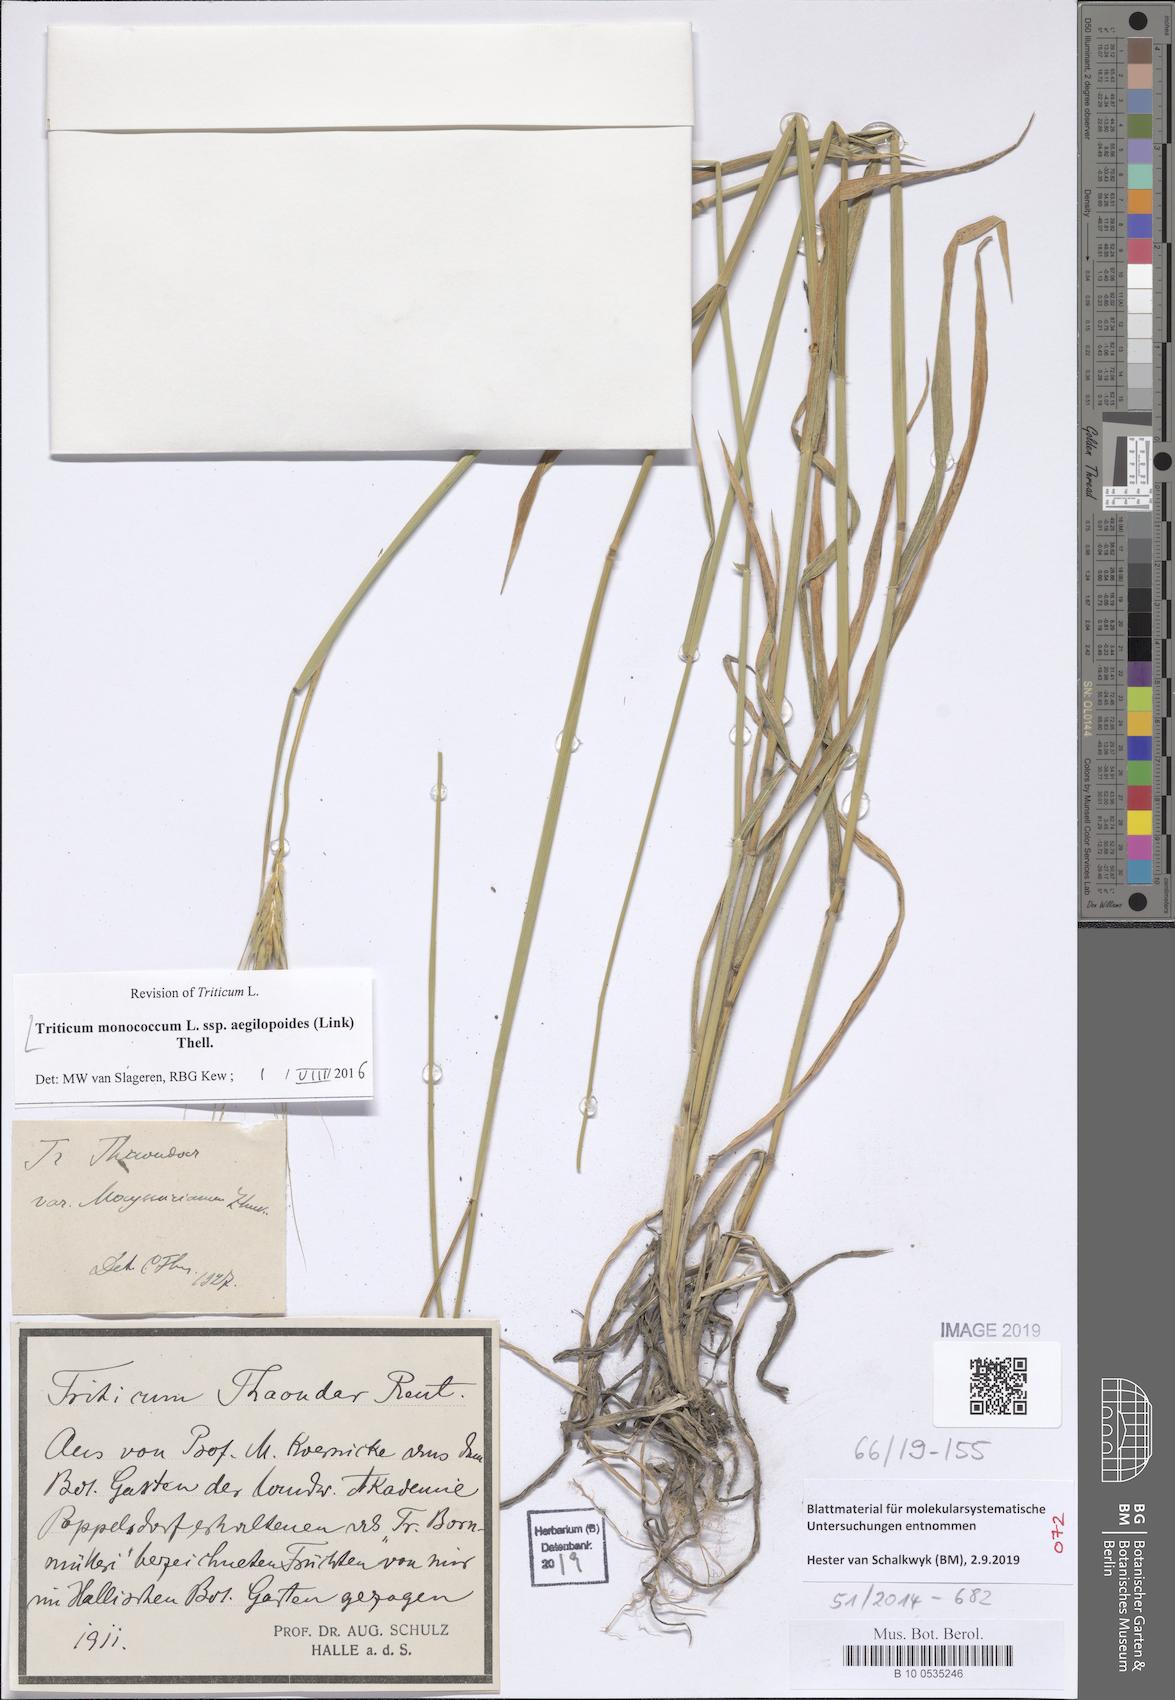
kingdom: Plantae
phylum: Tracheophyta
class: Liliopsida
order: Poales
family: Poaceae
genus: Triticum
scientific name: Triticum monococcum
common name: Einkorn
